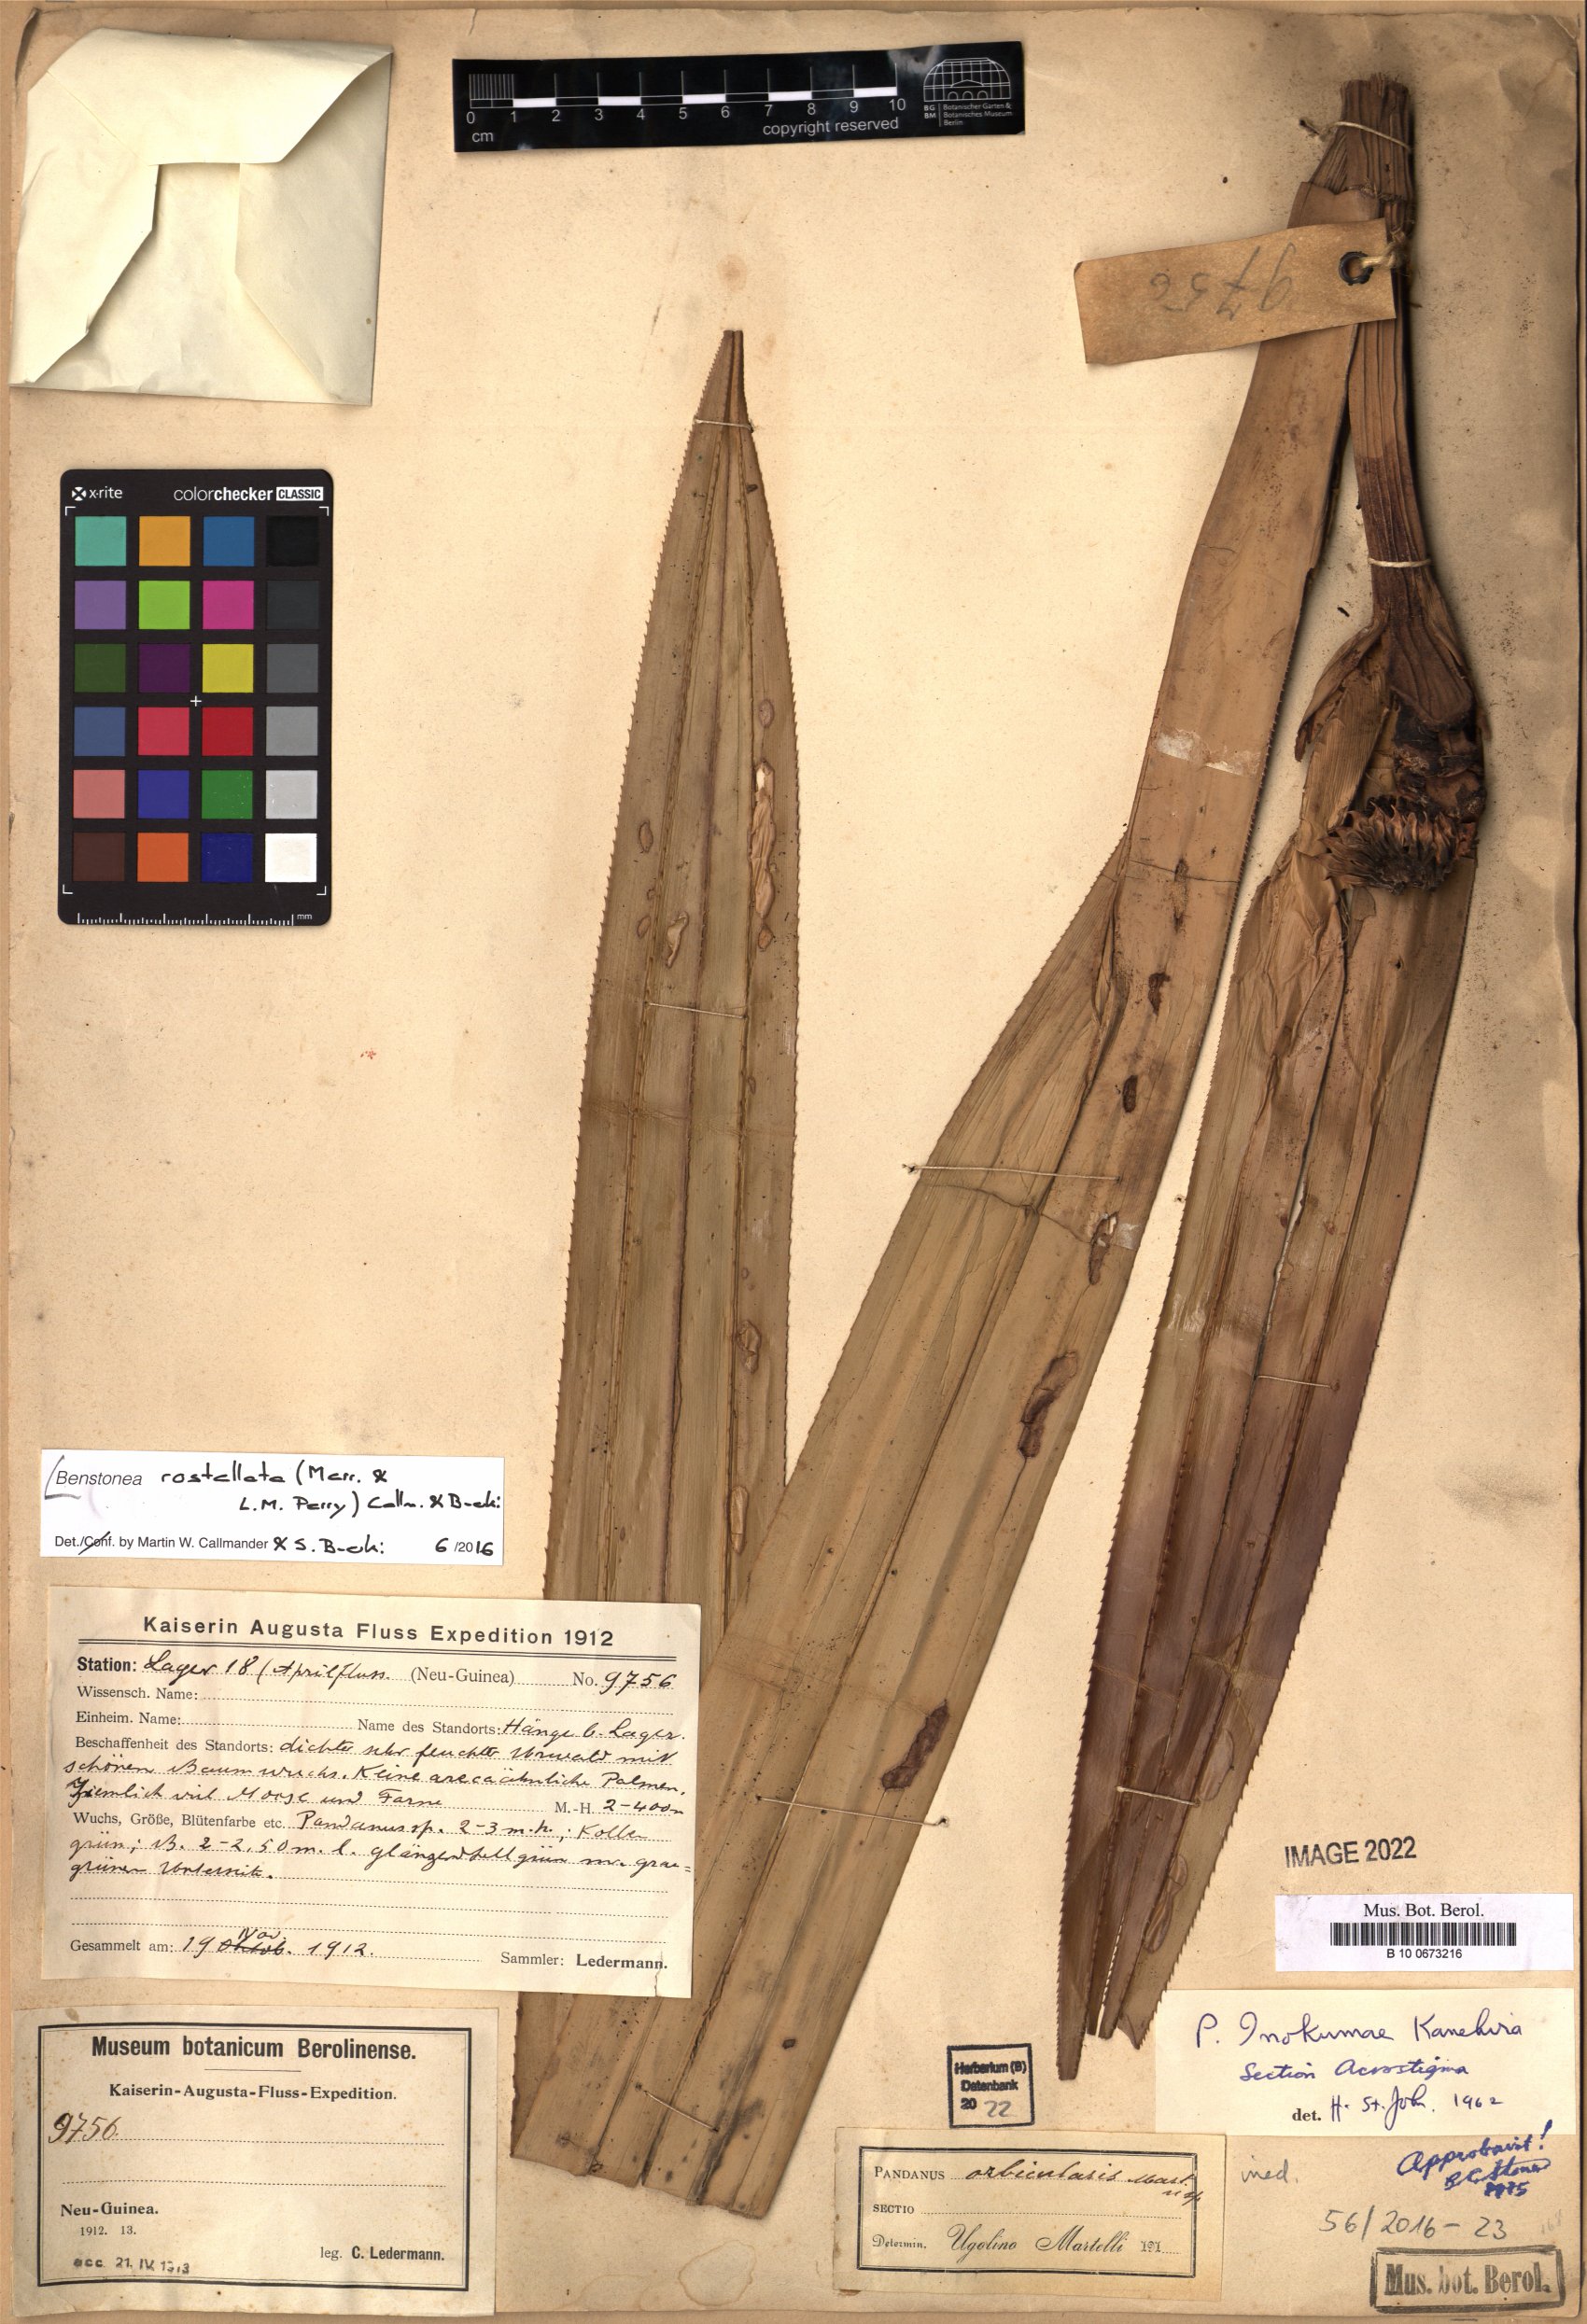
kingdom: Plantae
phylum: Tracheophyta
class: Liliopsida
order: Pandanales
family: Pandanaceae
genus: Benstonea
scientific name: Benstonea rostellata
